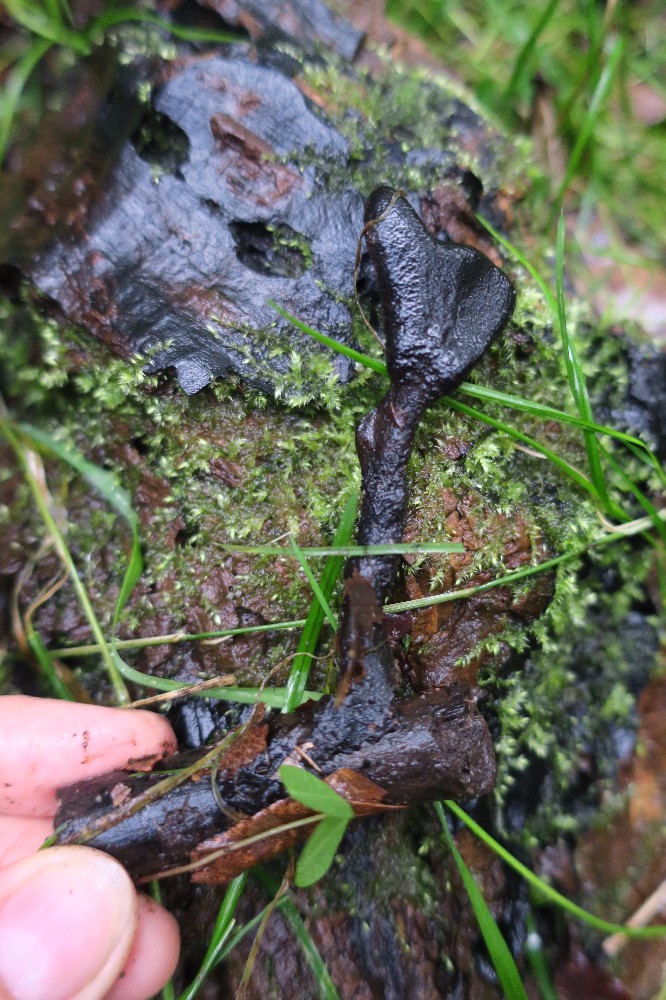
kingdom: Fungi
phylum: Ascomycota
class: Sordariomycetes
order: Xylariales
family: Xylariaceae
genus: Xylaria
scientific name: Xylaria longipes
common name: slank stødsvamp
